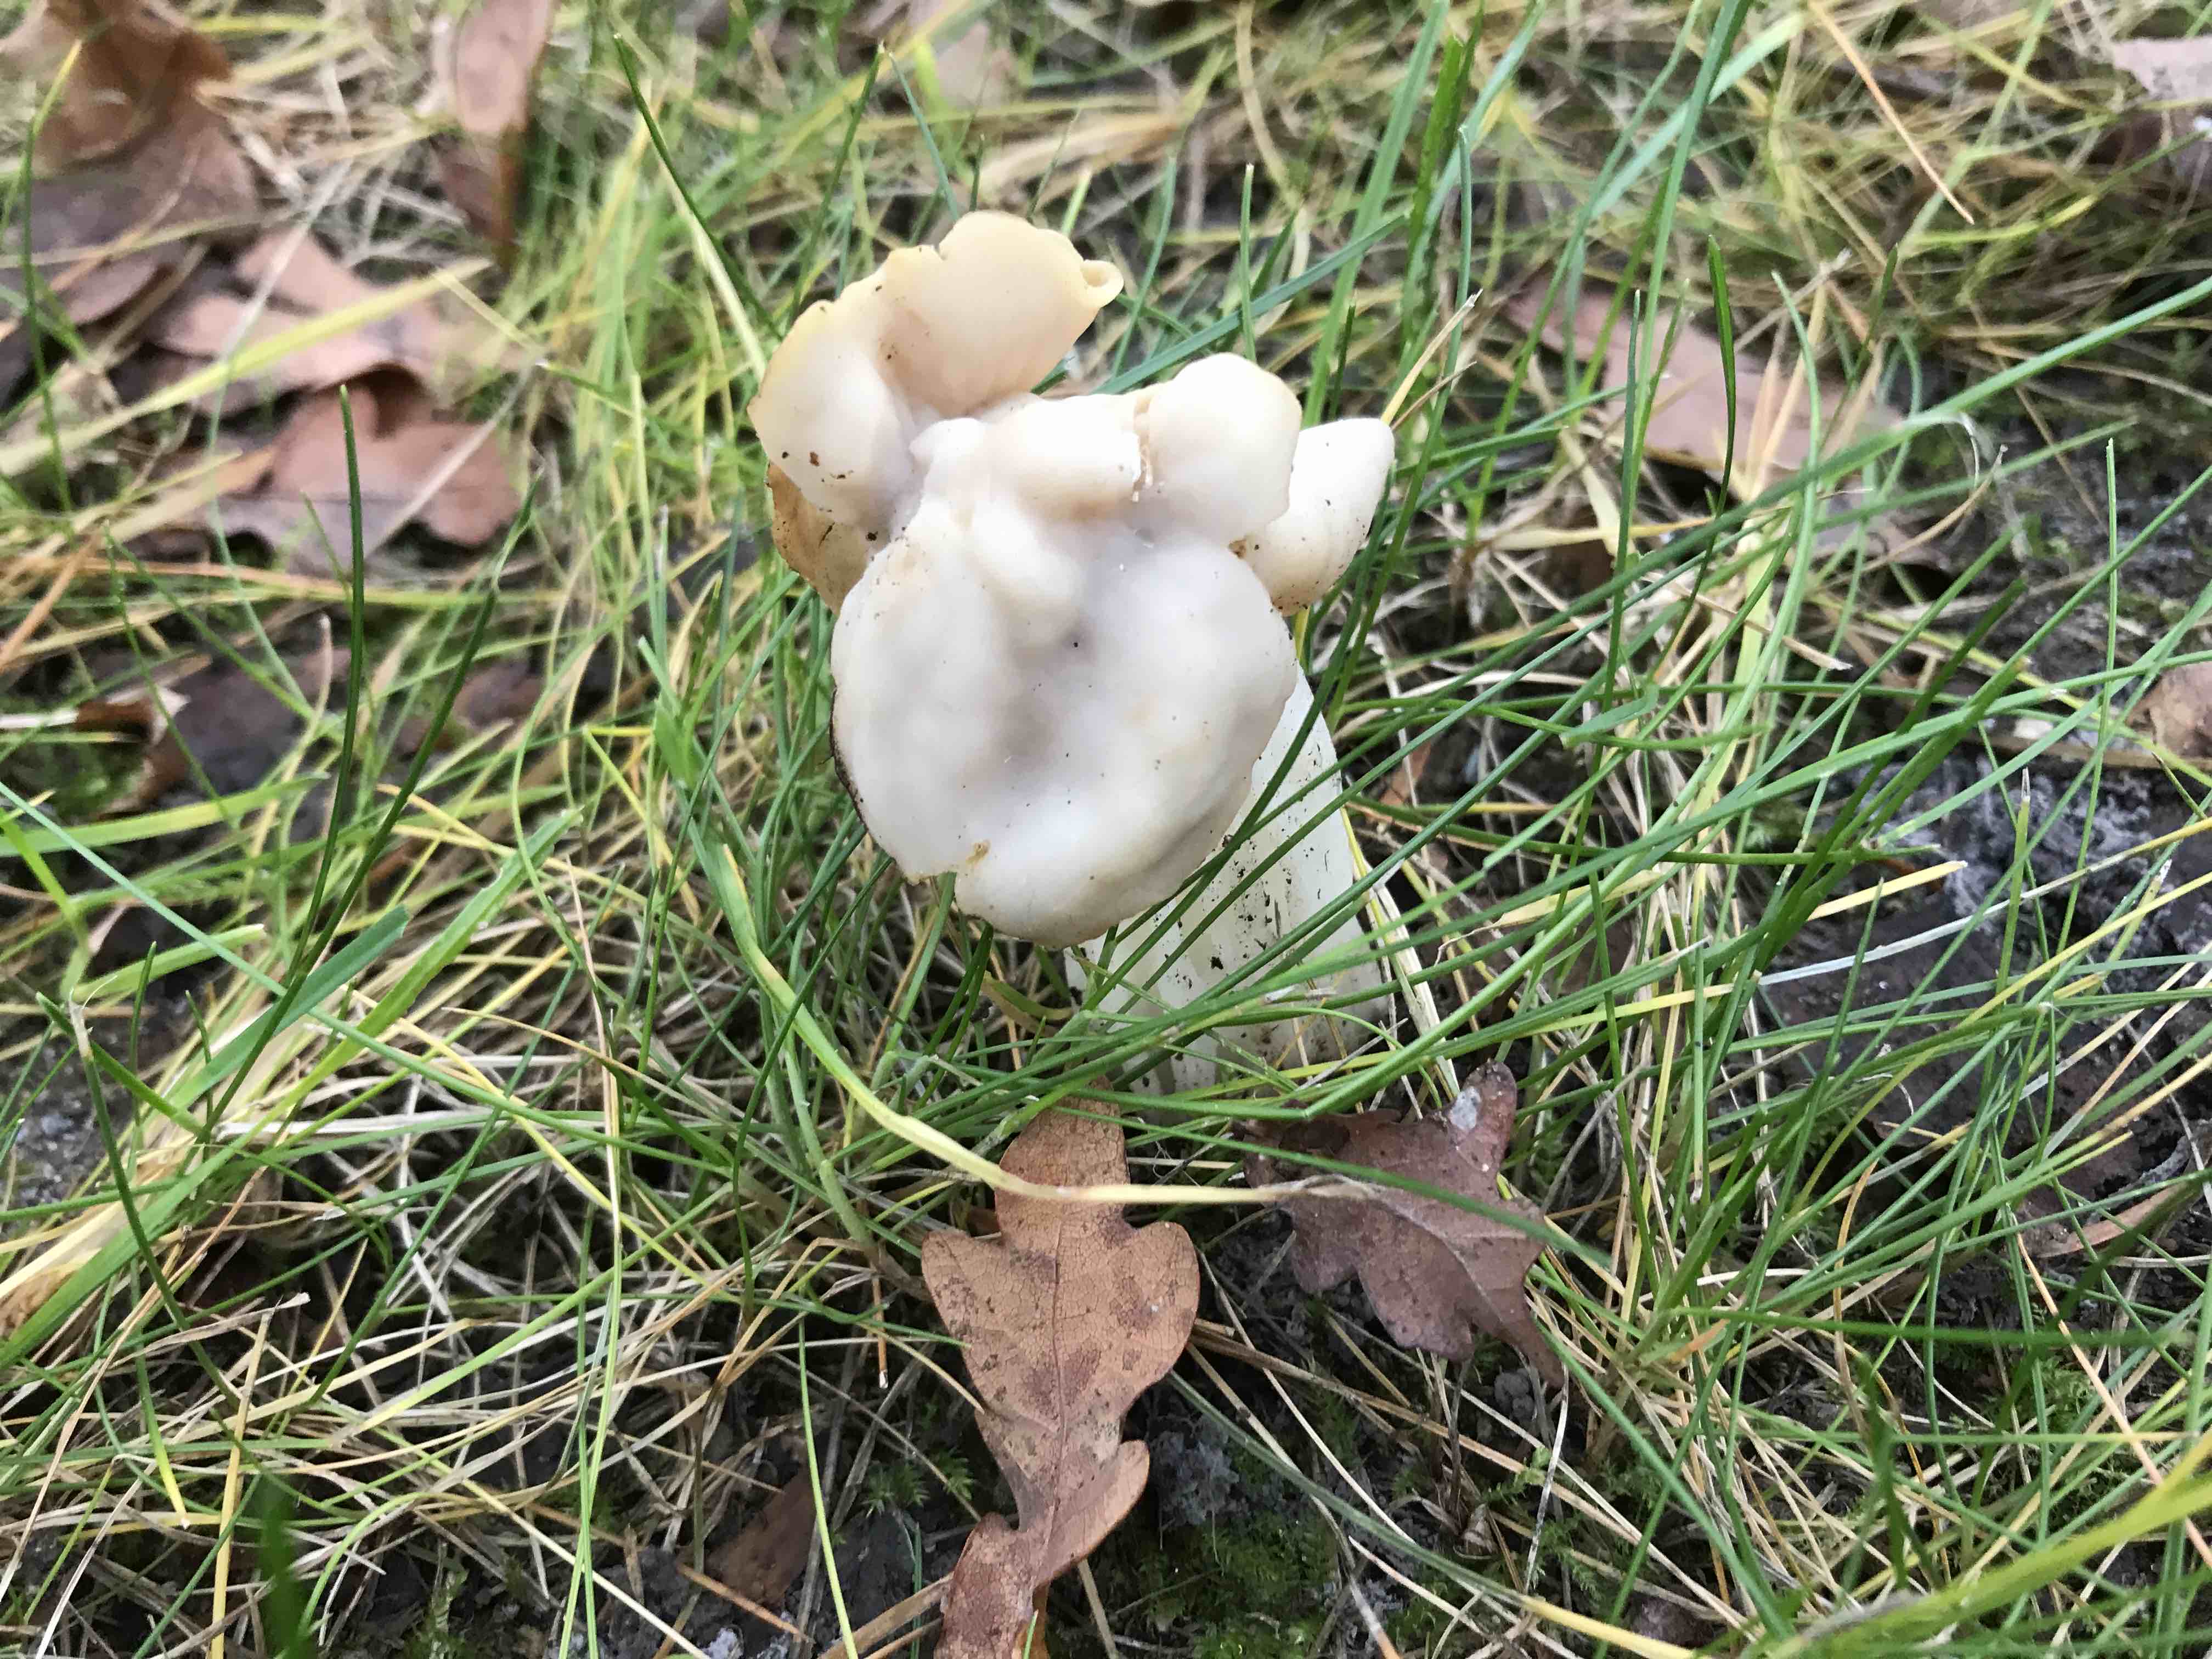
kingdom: Fungi
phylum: Ascomycota
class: Pezizomycetes
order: Pezizales
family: Helvellaceae
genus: Helvella
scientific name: Helvella crispa
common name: kruset foldhat
